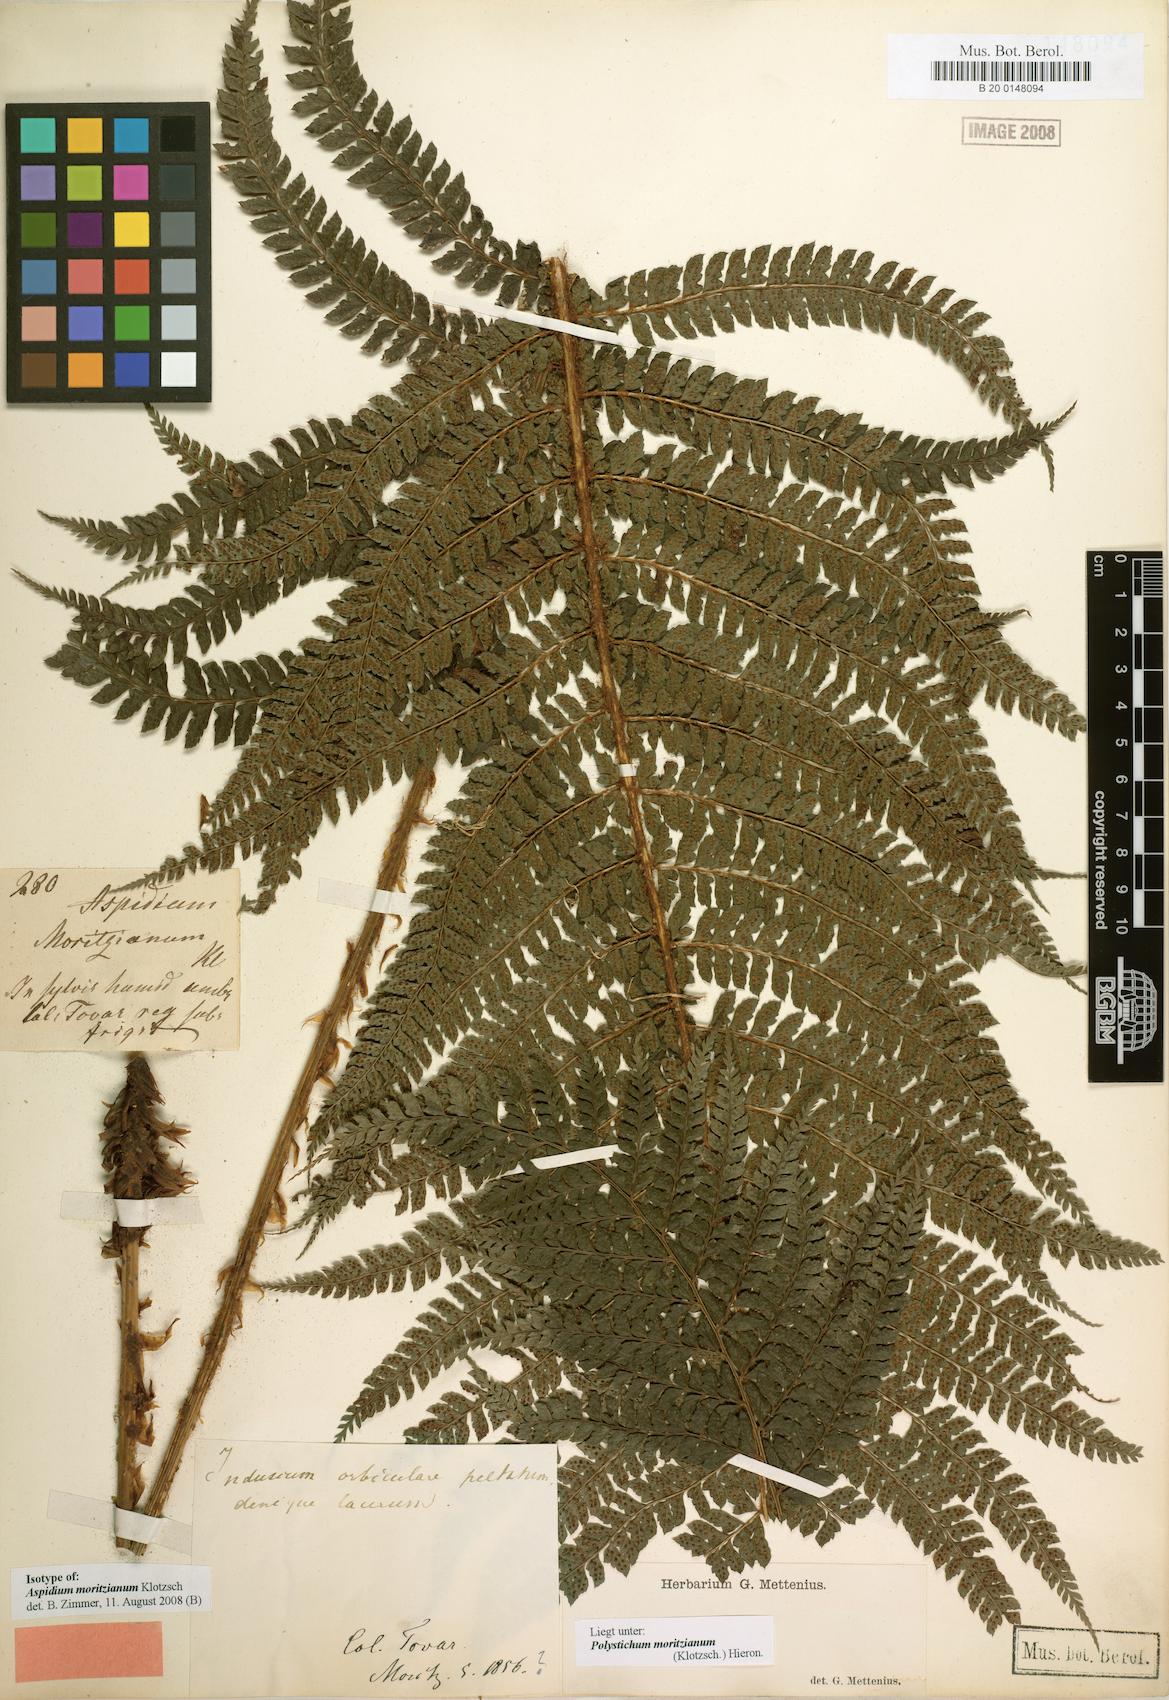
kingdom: Plantae
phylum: Tracheophyta
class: Polypodiopsida
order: Polypodiales
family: Dryopteridaceae
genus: Polystichum
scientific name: Polystichum muricatum
